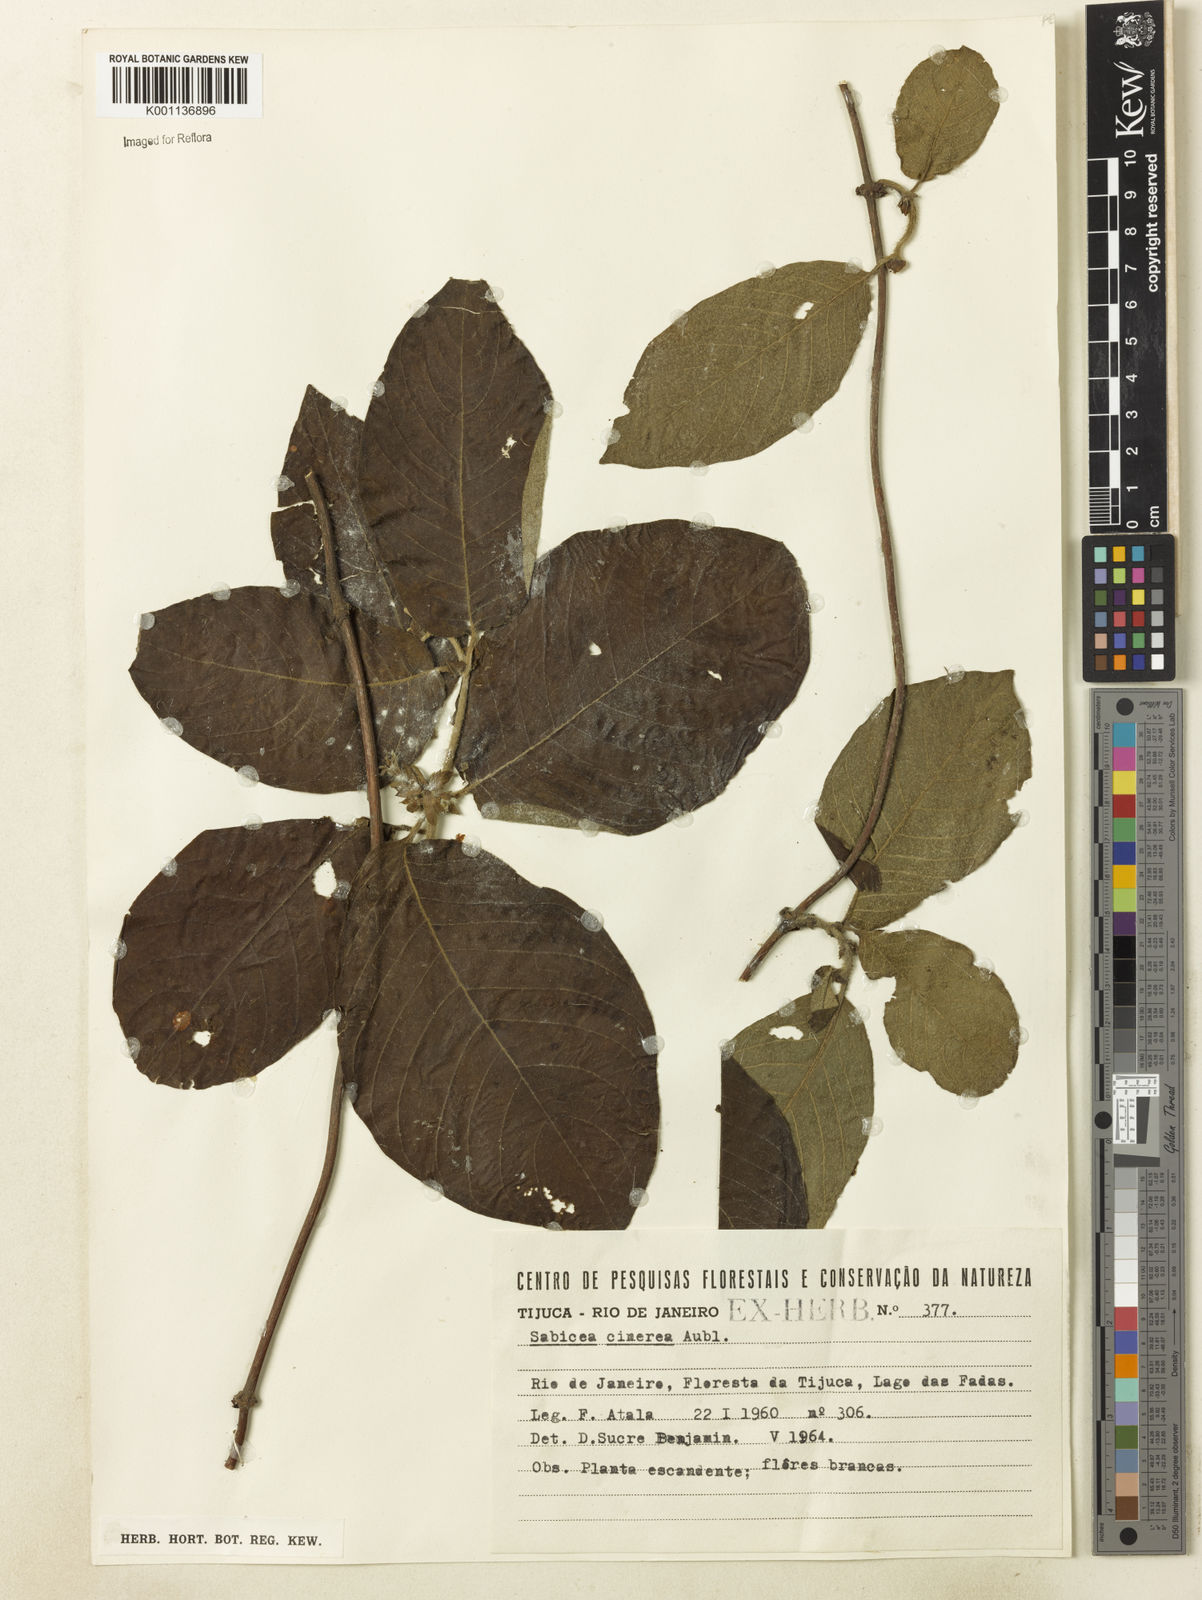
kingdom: Plantae
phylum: Tracheophyta
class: Magnoliopsida
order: Gentianales
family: Rubiaceae
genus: Sabicea
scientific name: Sabicea cinerea
